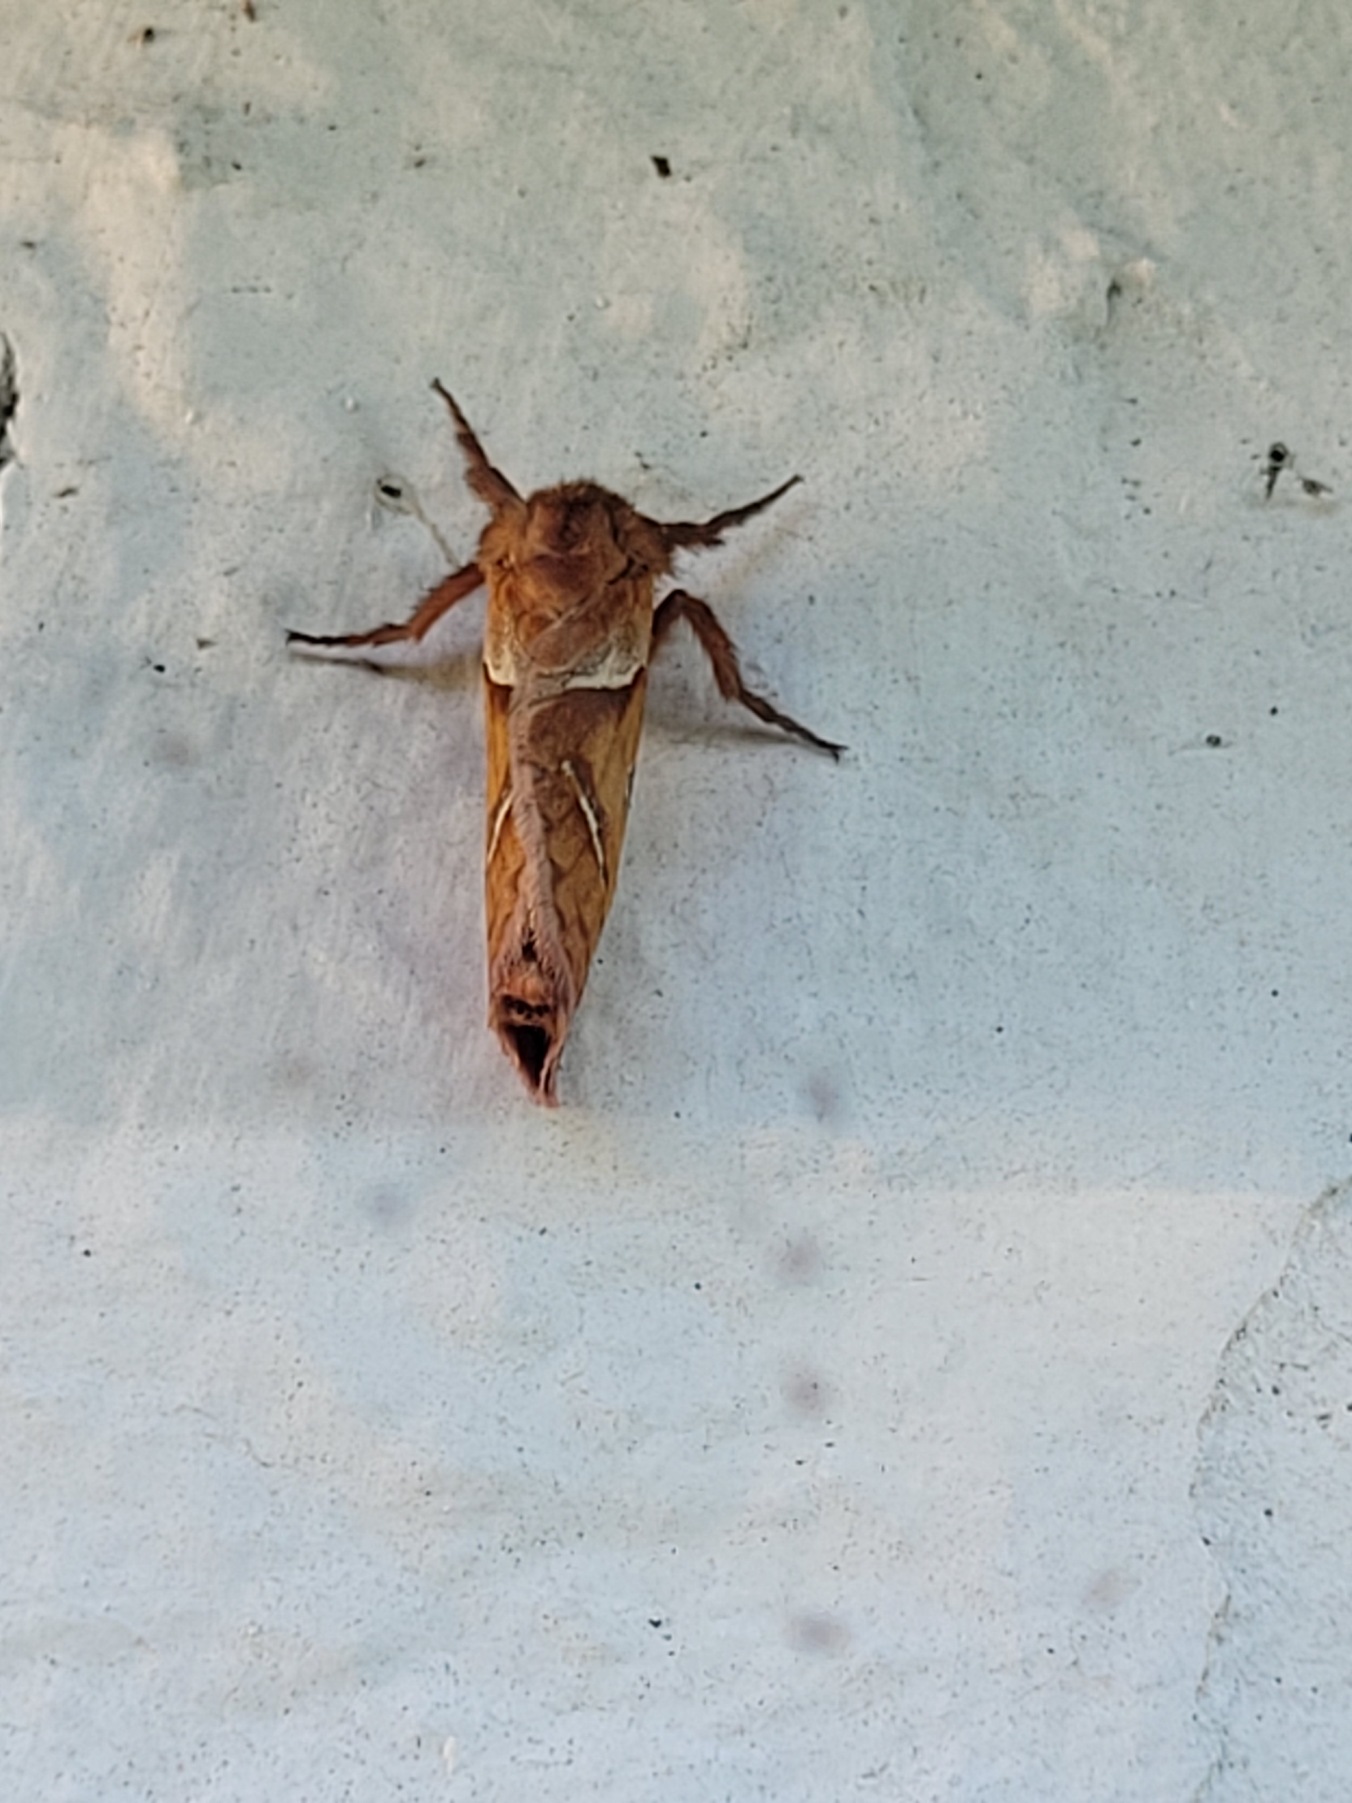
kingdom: Animalia
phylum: Arthropoda
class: Insecta
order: Lepidoptera
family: Hepialidae
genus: Triodia
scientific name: Triodia sylvina
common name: Skræpperodæder
